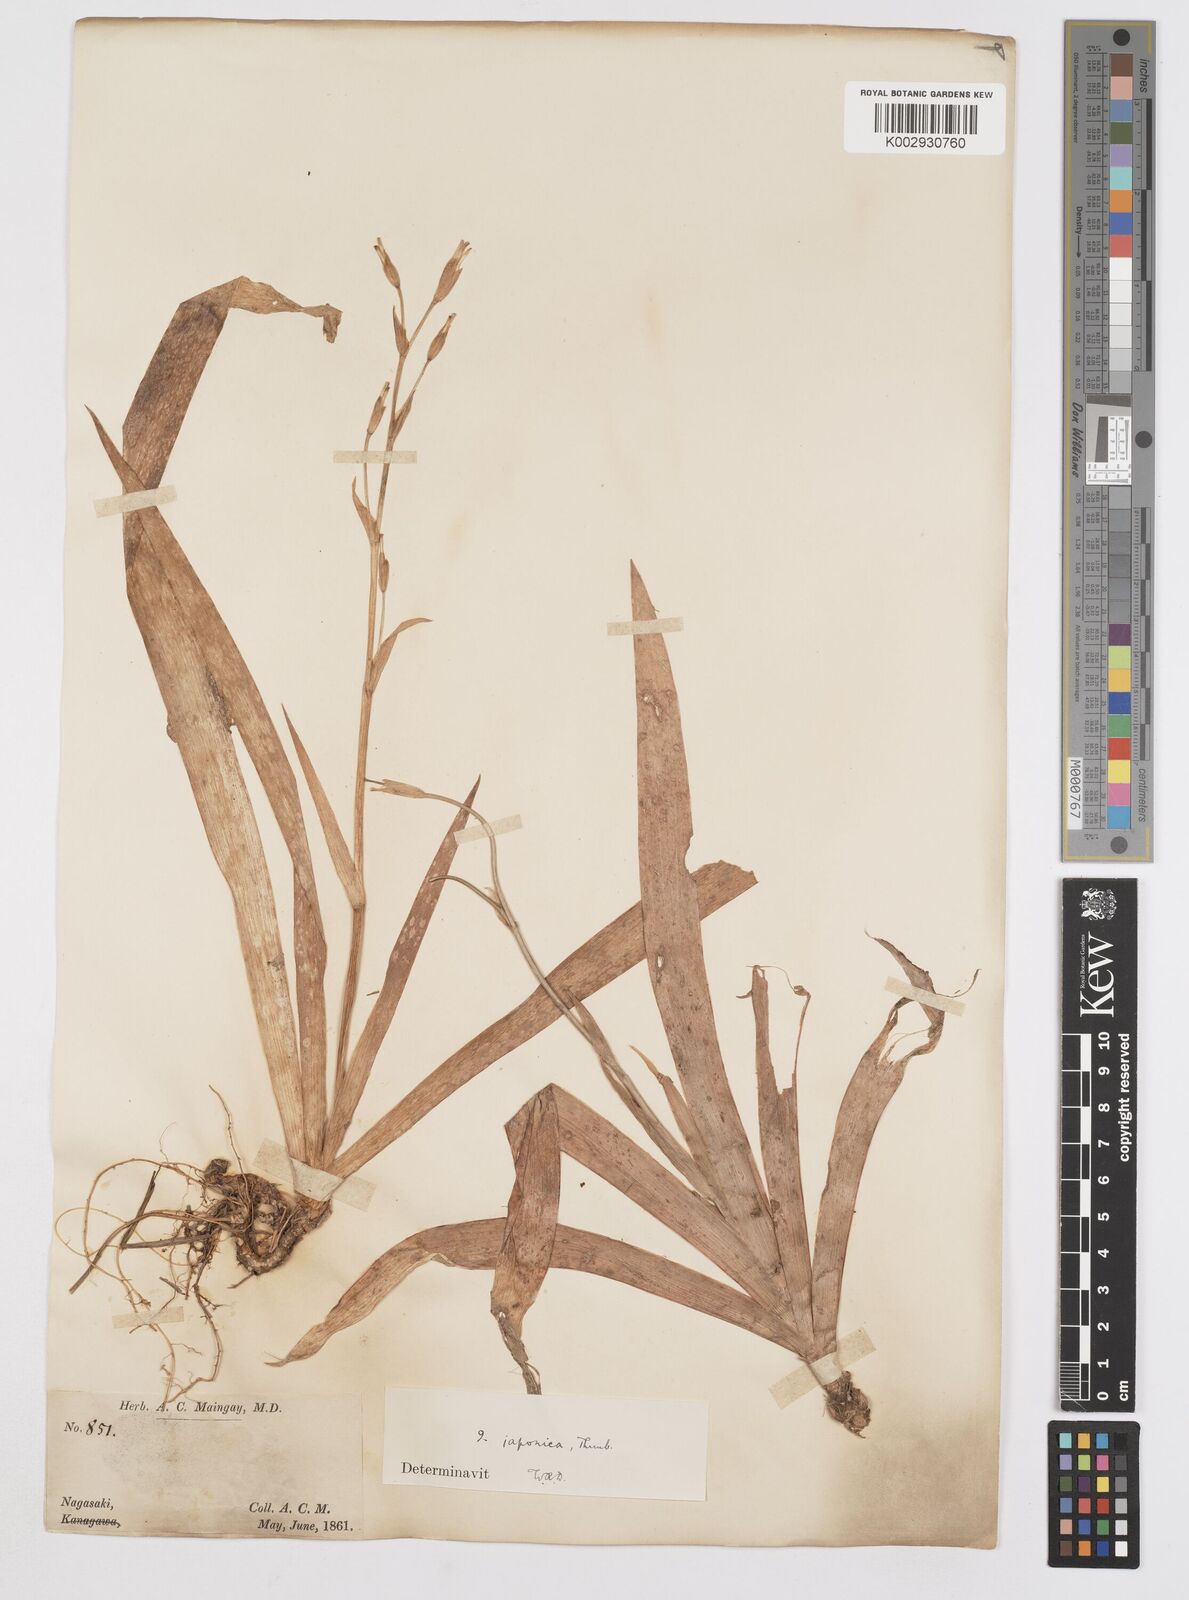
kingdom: Plantae
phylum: Tracheophyta
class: Liliopsida
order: Asparagales
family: Iridaceae
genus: Iris
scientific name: Iris japonica
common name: Butterfly-flower
